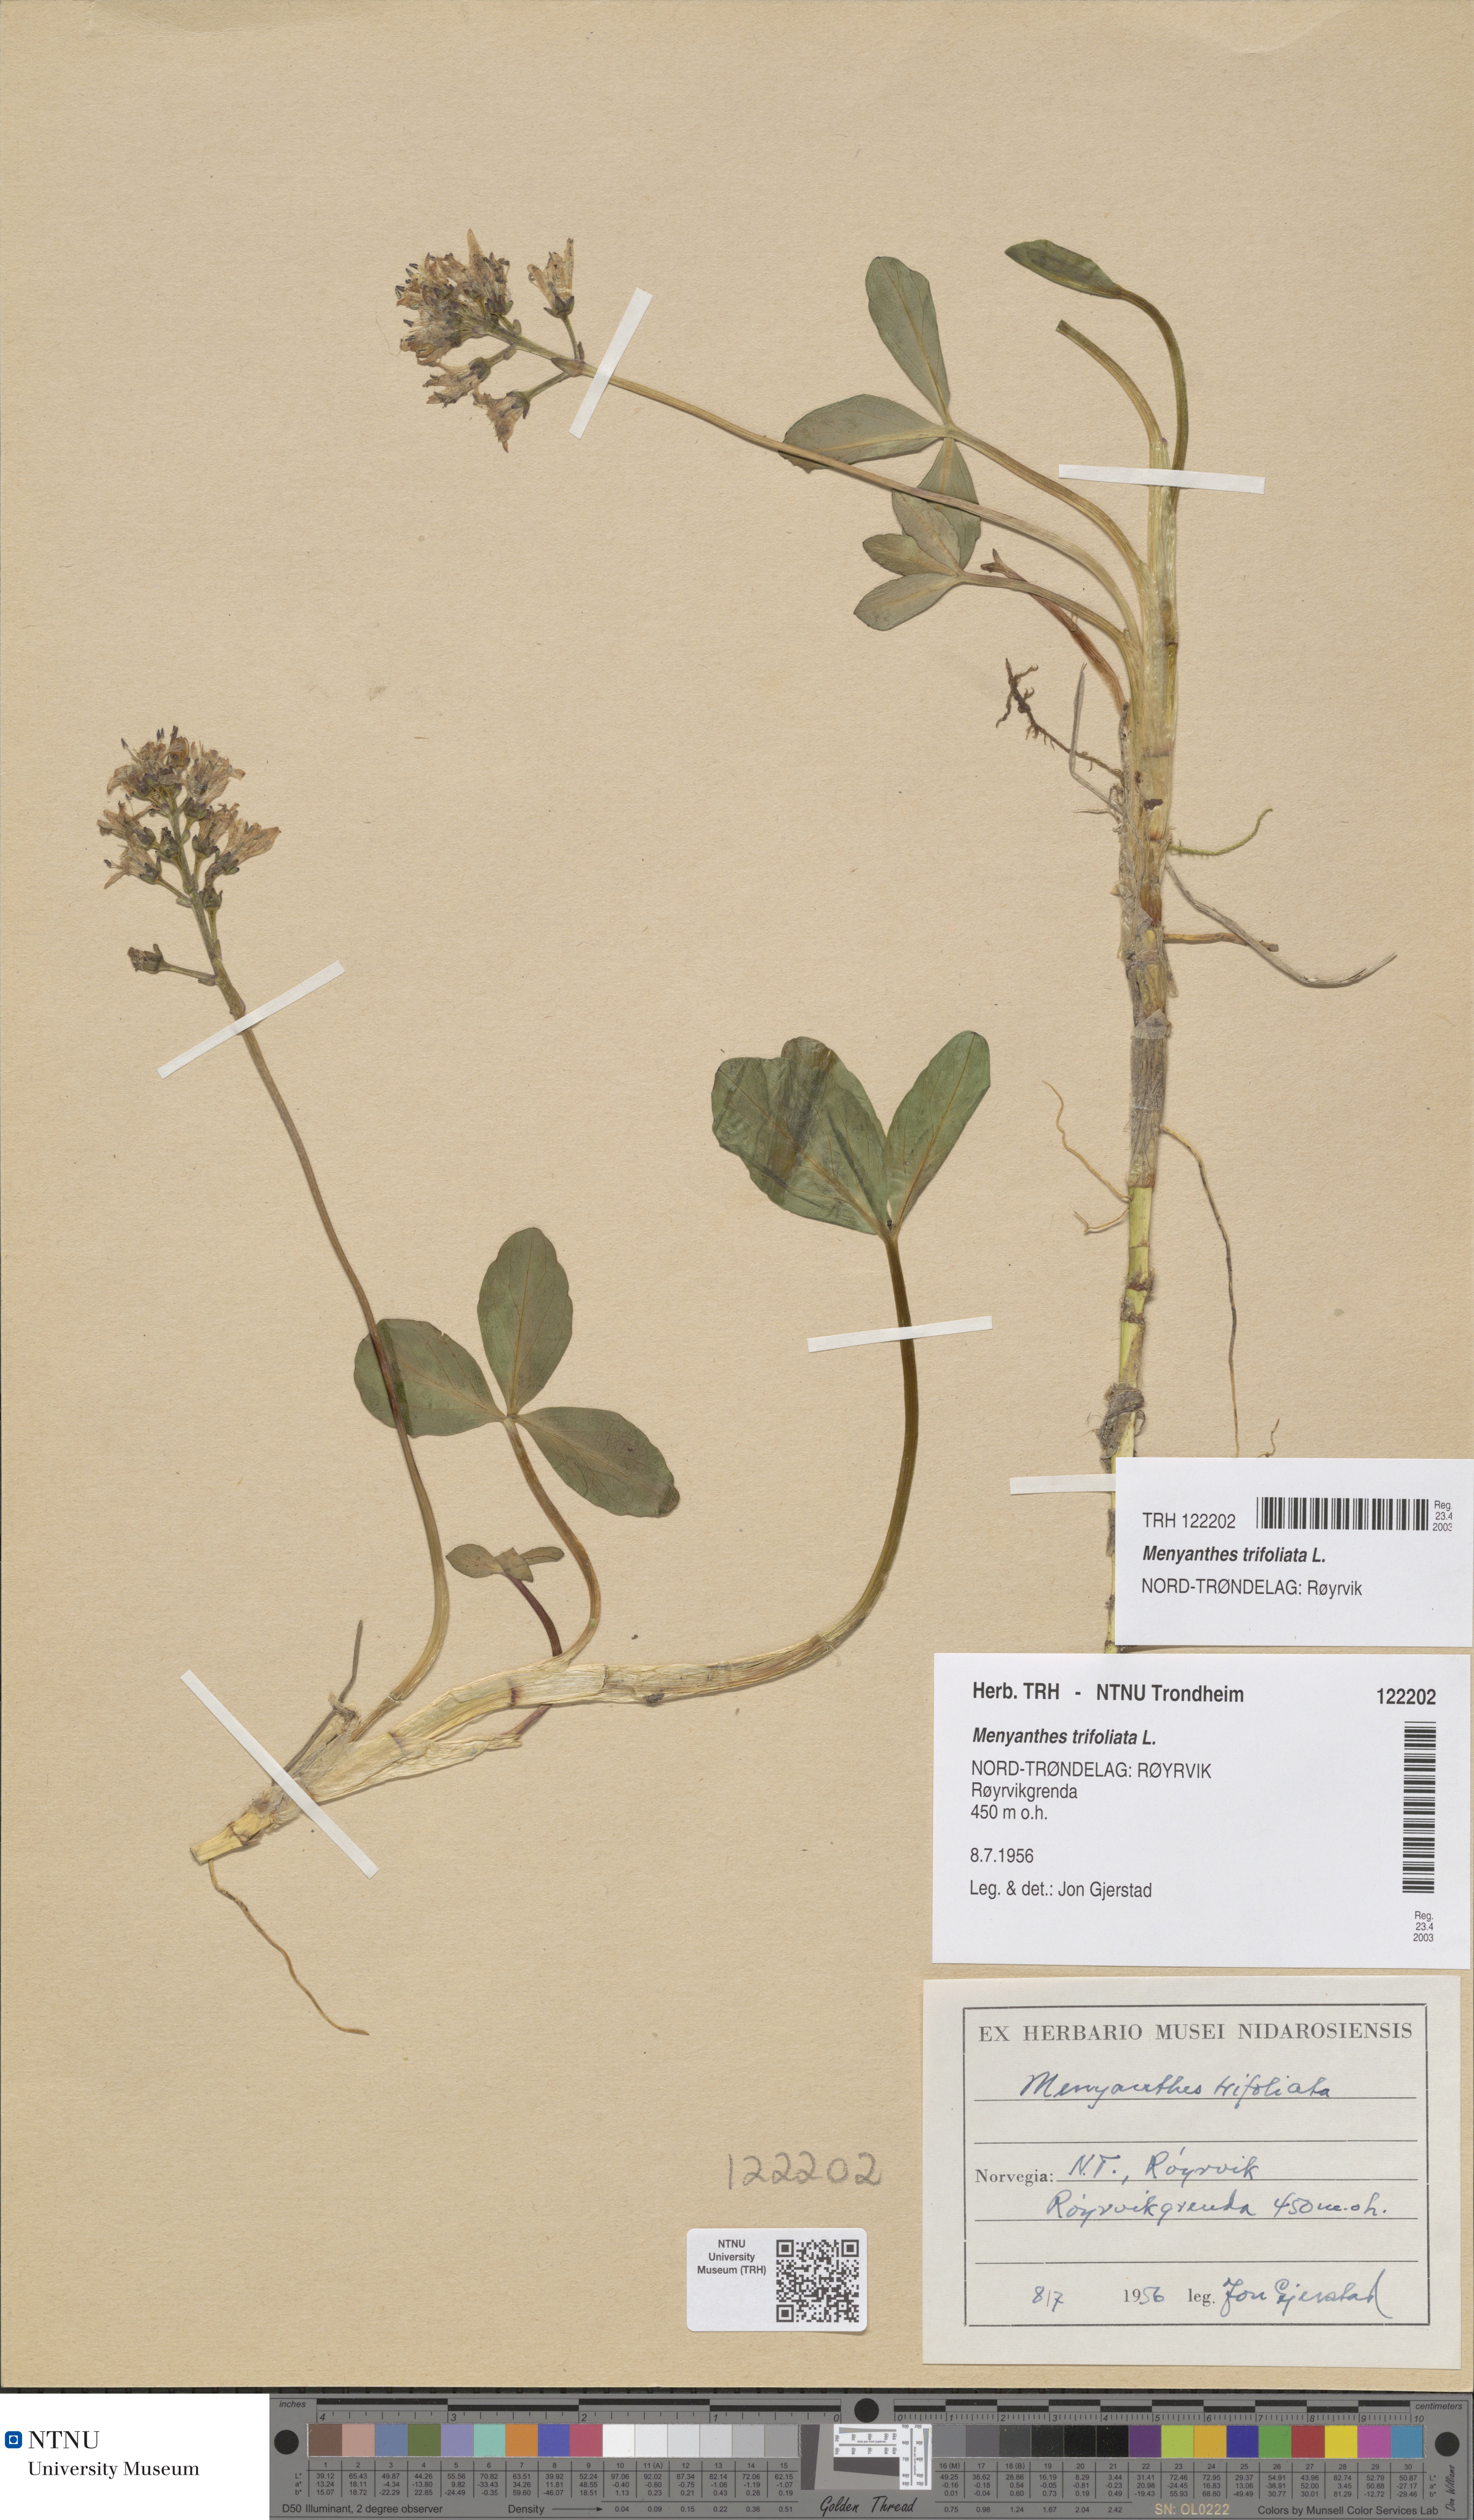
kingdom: Plantae
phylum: Tracheophyta
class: Magnoliopsida
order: Asterales
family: Menyanthaceae
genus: Menyanthes
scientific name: Menyanthes trifoliata
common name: Bogbean
